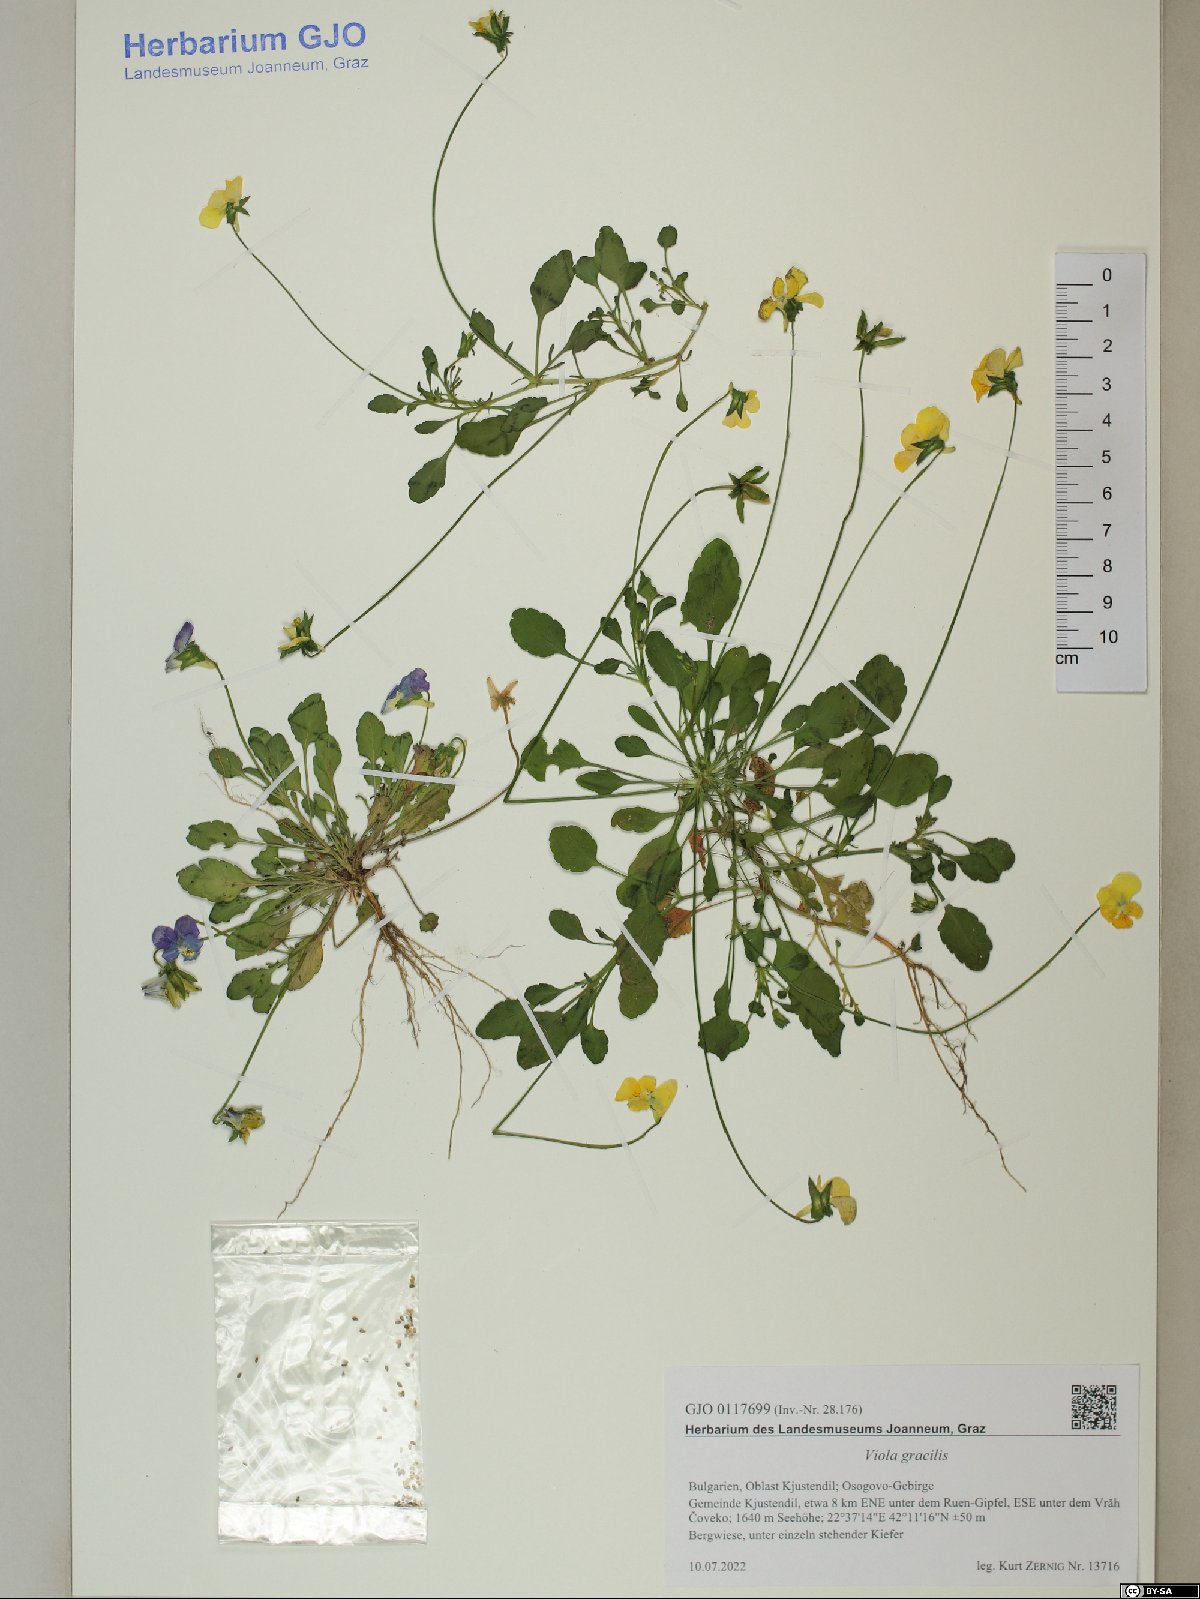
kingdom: Plantae
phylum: Tracheophyta
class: Magnoliopsida
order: Malpighiales
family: Violaceae
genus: Viola
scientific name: Viola gracilis
